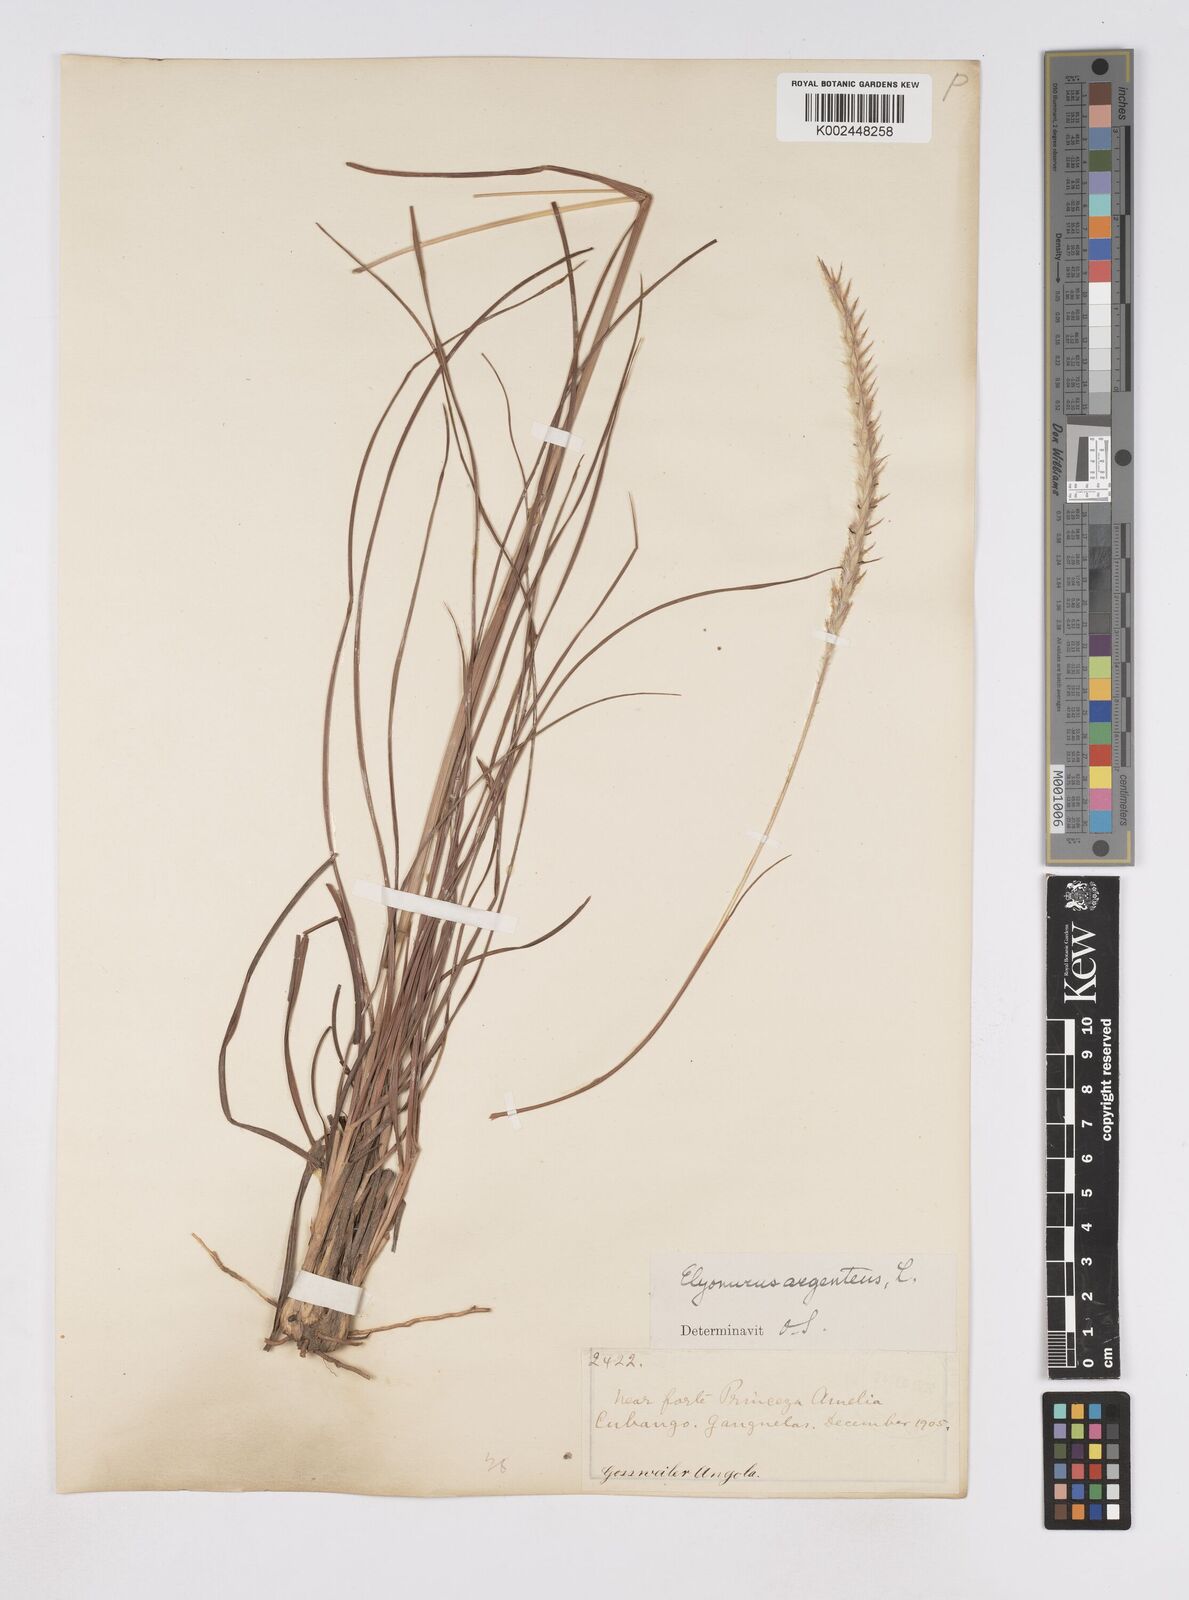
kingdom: Plantae
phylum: Tracheophyta
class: Liliopsida
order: Poales
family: Poaceae
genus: Elionurus
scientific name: Elionurus muticus
